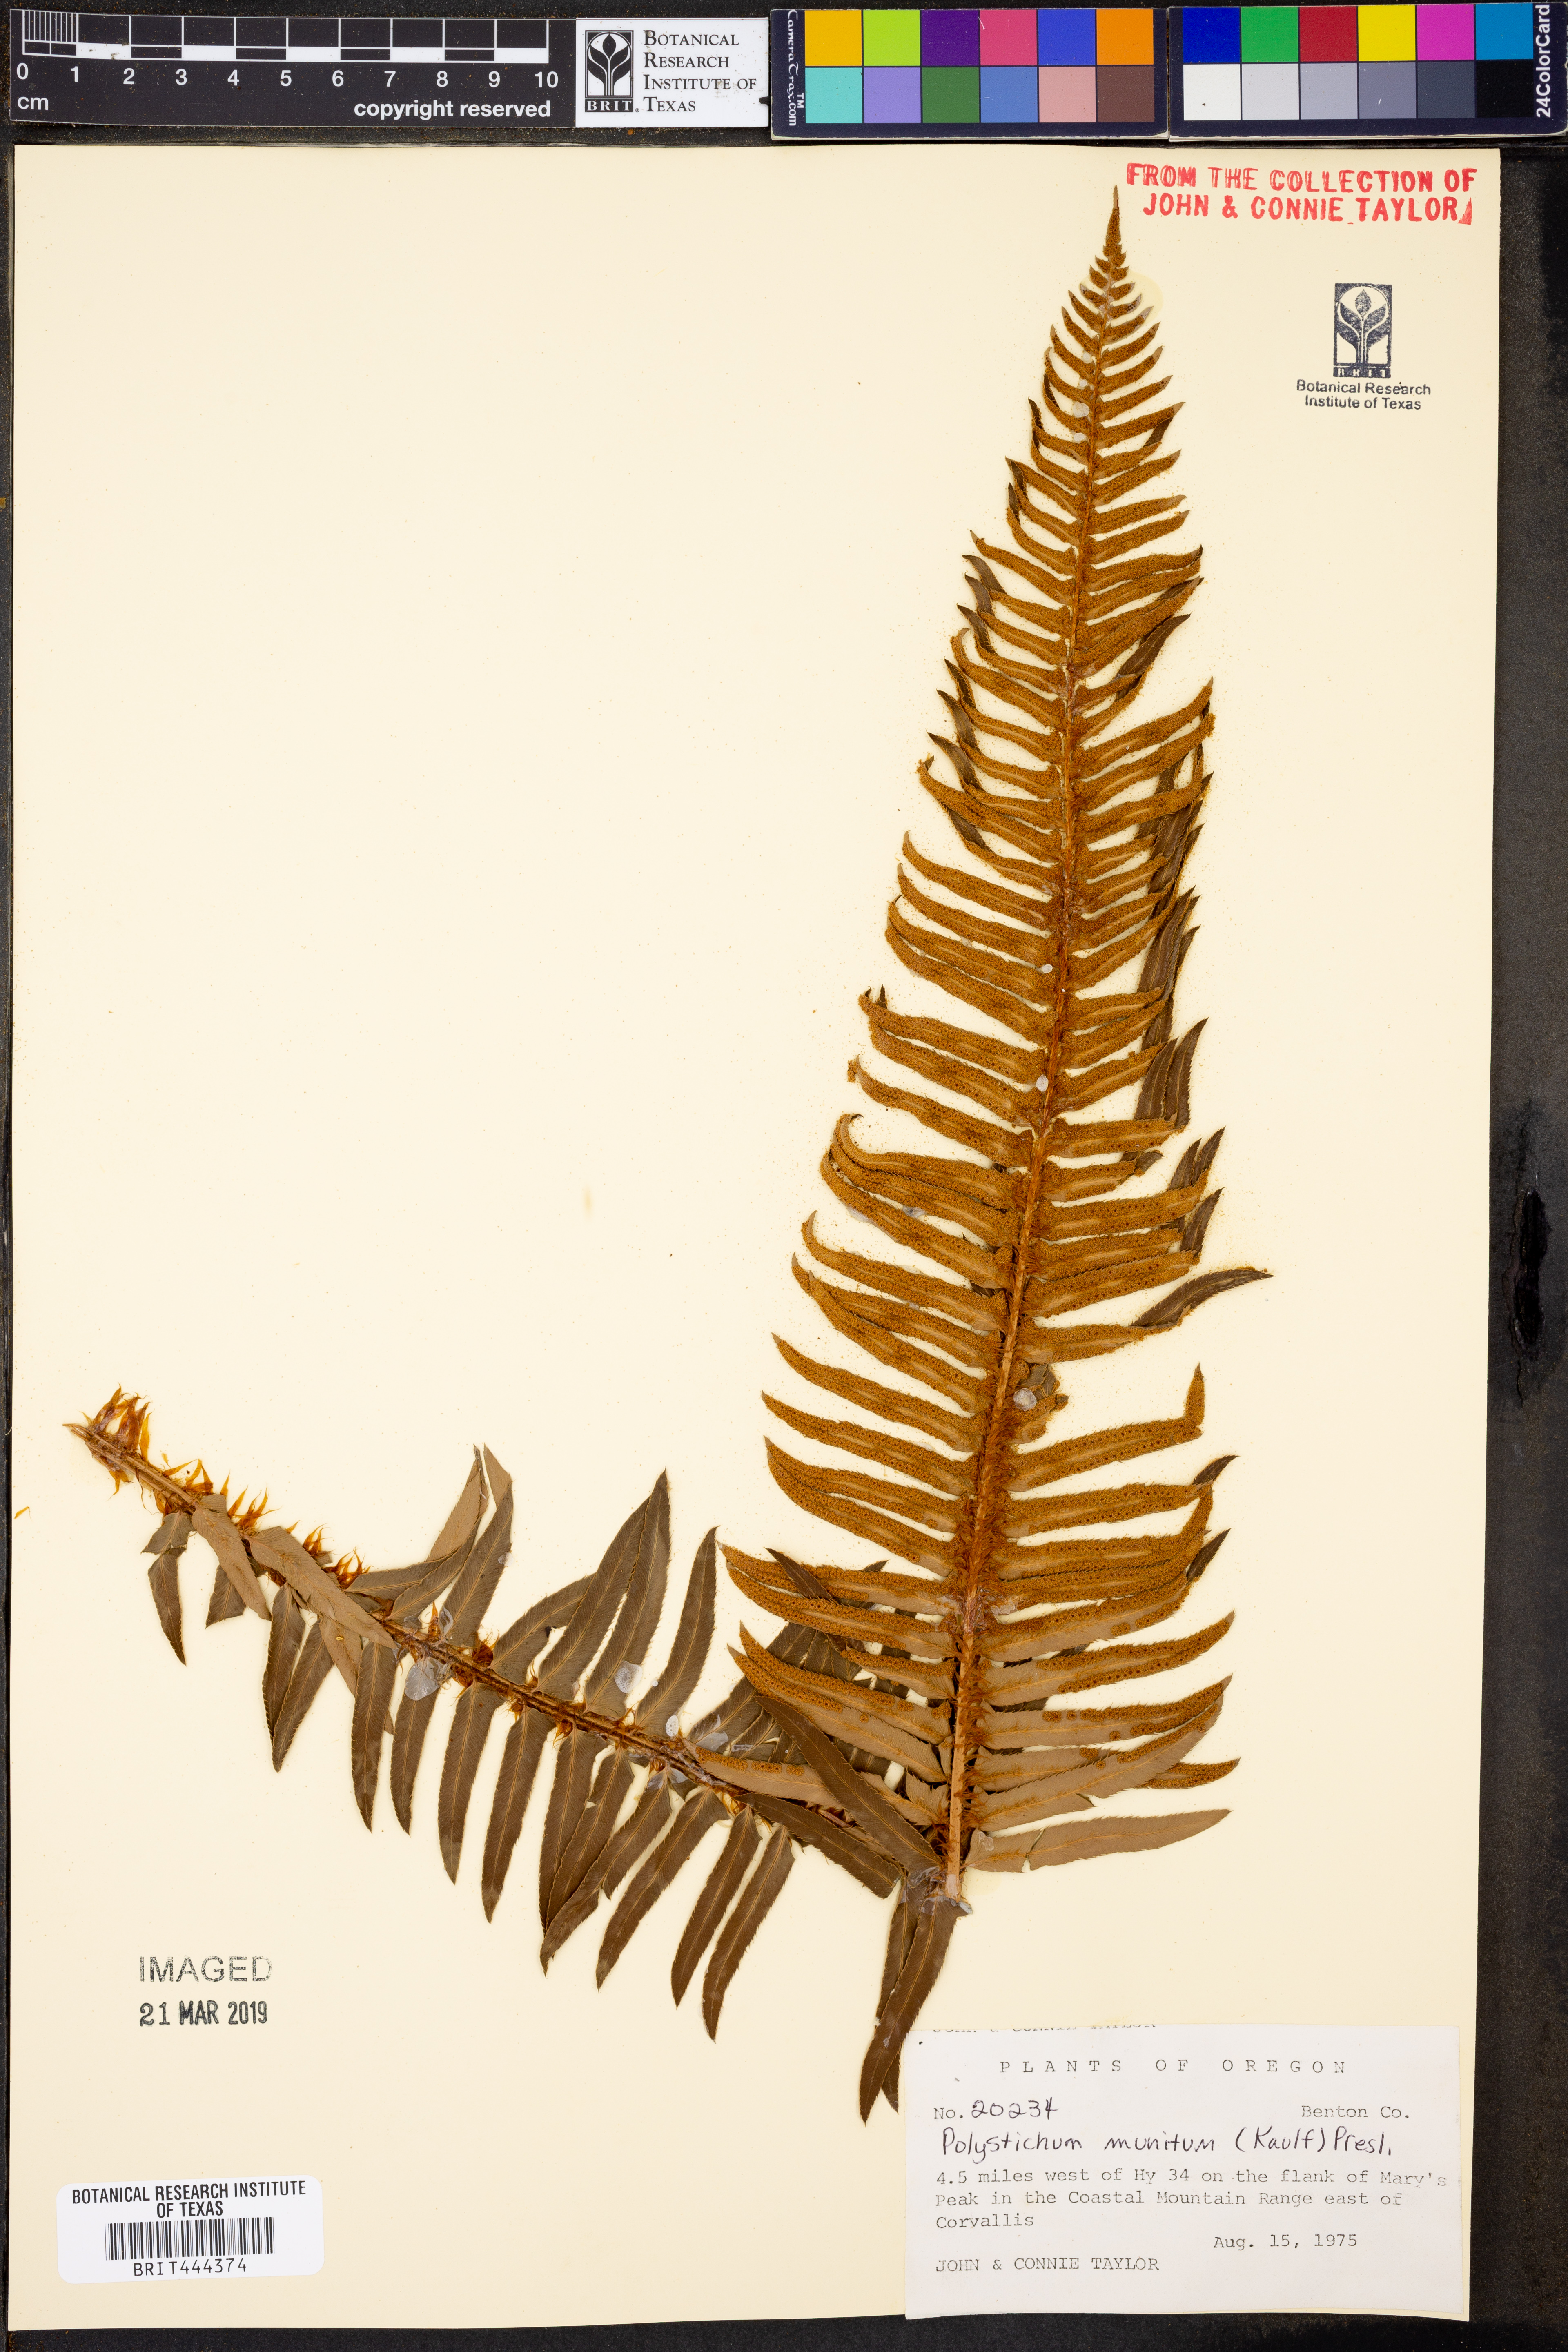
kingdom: Plantae
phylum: Tracheophyta
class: Polypodiopsida
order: Polypodiales
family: Dryopteridaceae
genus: Polystichum
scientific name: Polystichum munitum
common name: Western sword-fern
